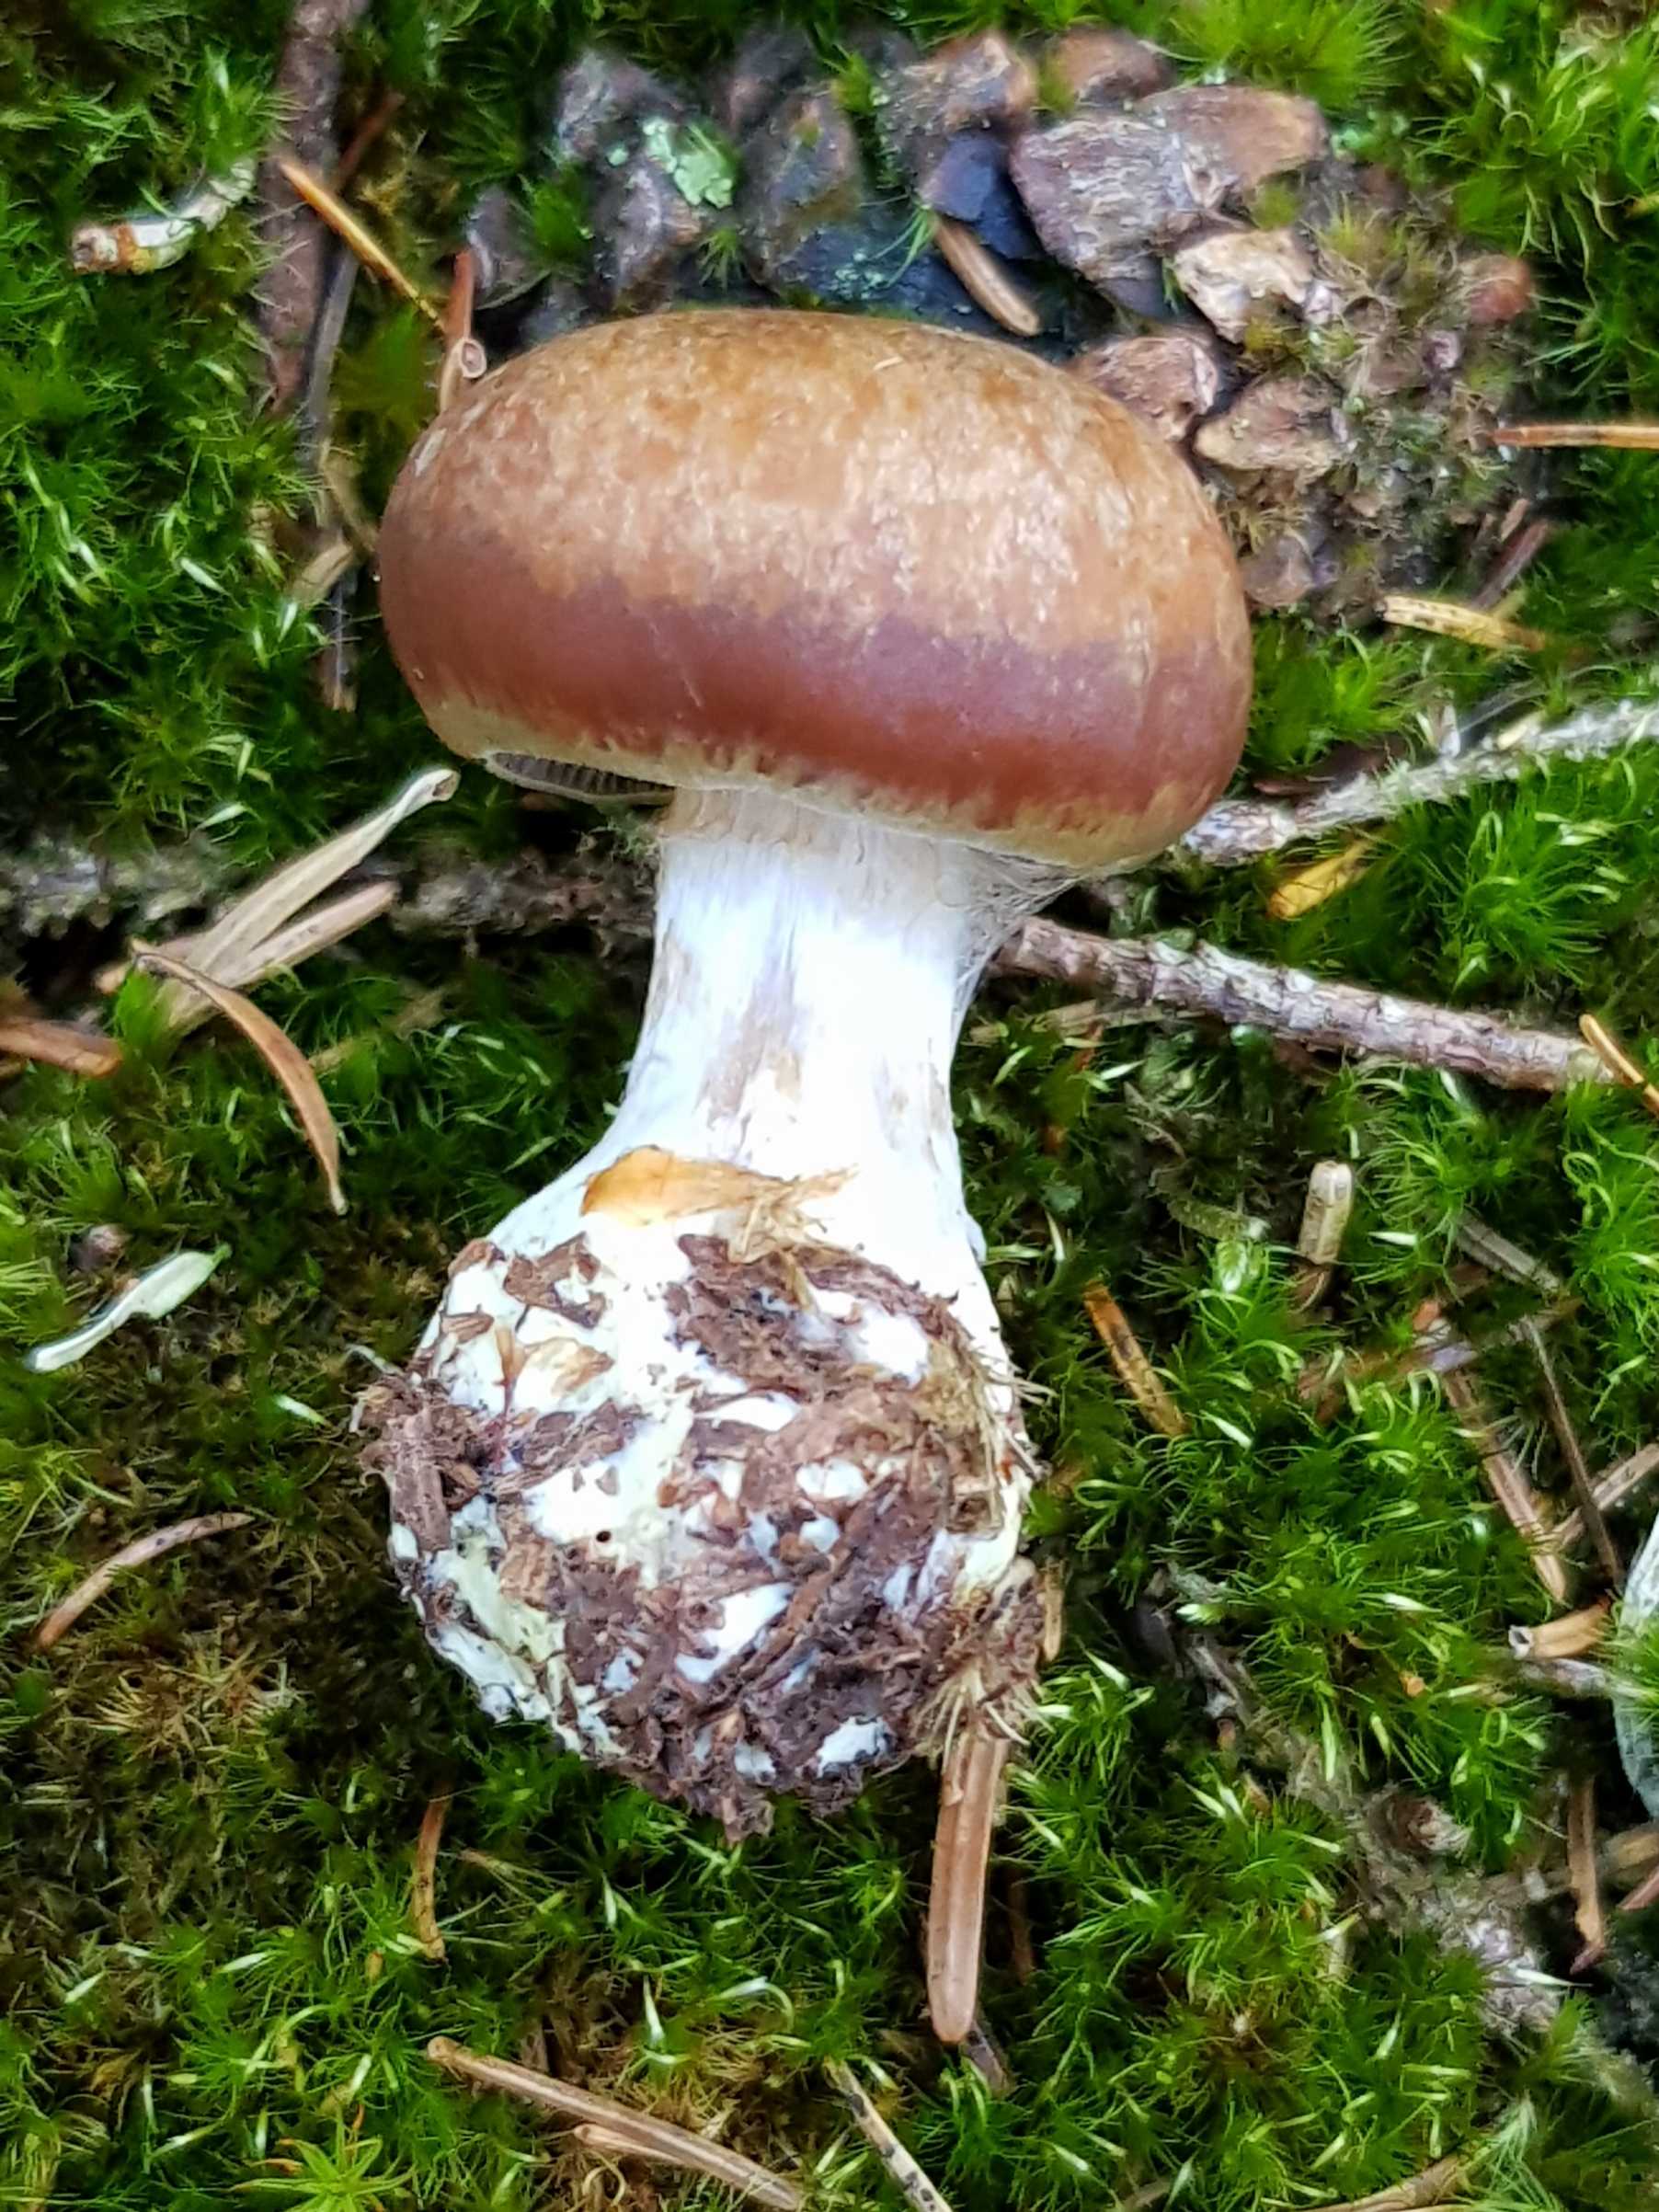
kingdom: Fungi
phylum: Basidiomycota
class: Agaricomycetes
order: Agaricales
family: Cortinariaceae
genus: Cortinarius
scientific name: Cortinarius
